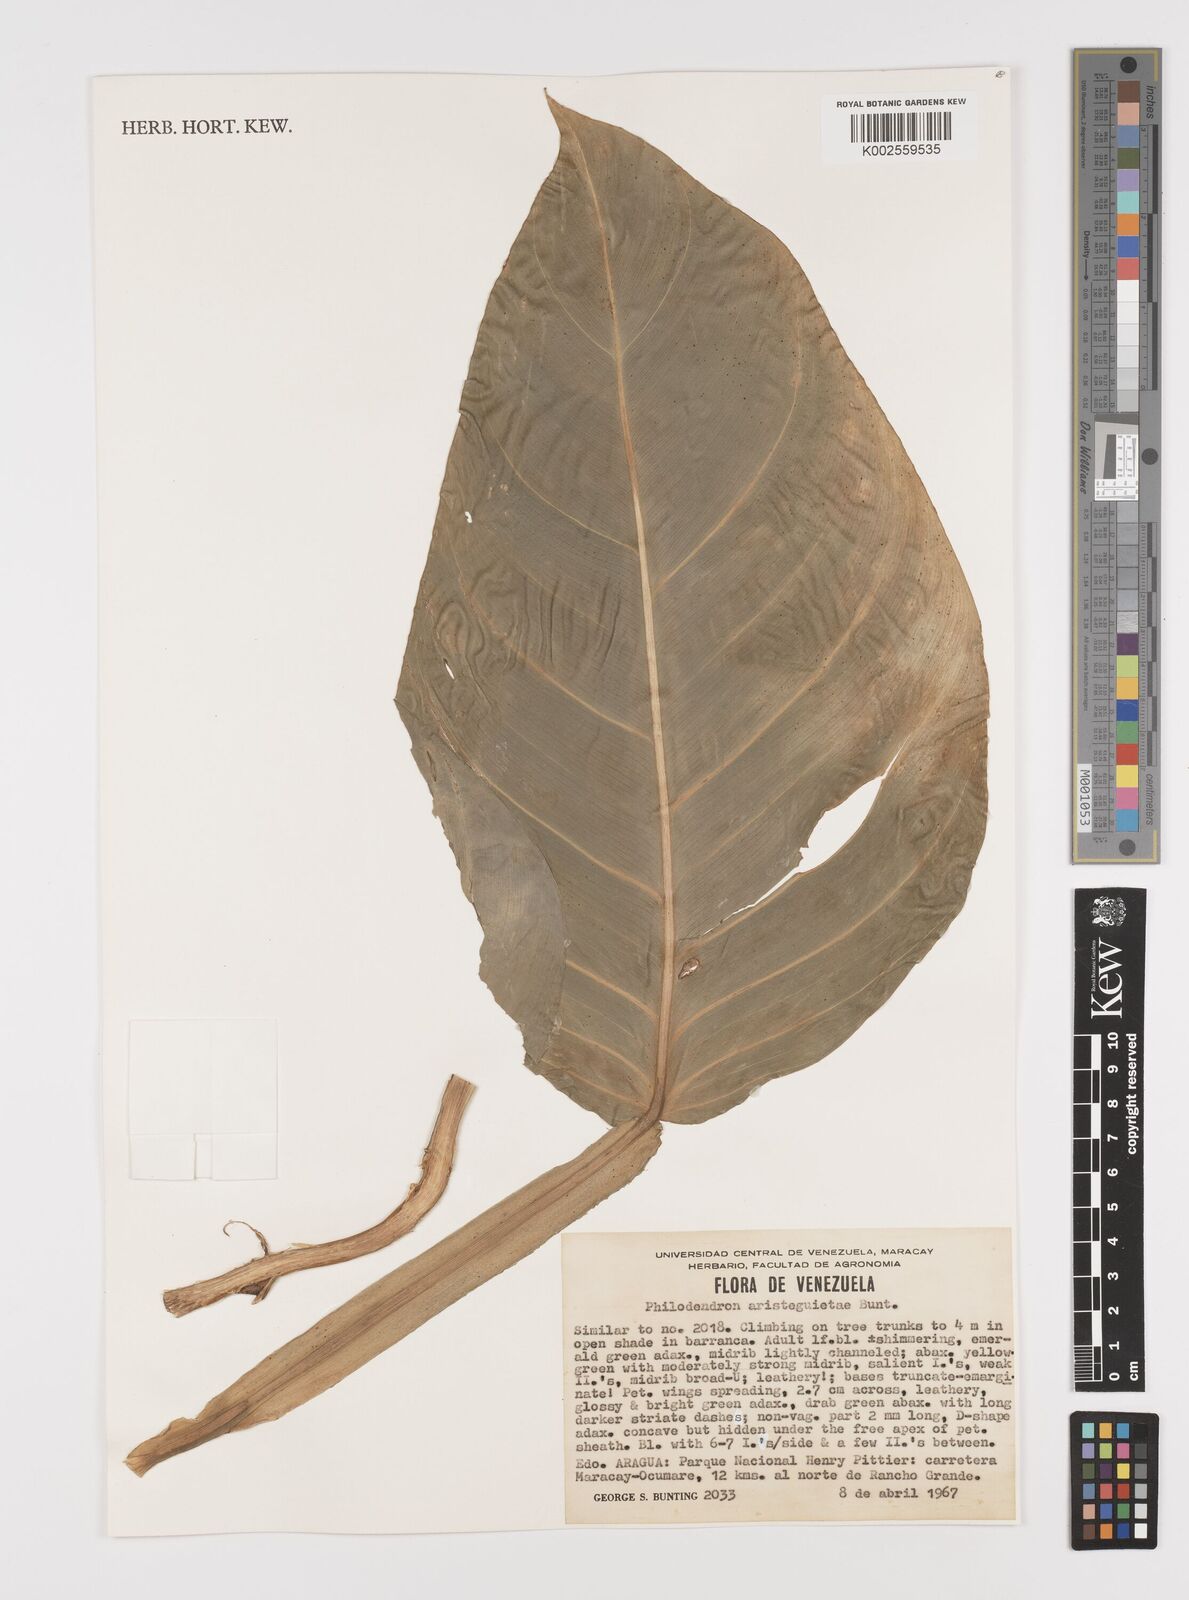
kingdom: Plantae
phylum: Tracheophyta
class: Liliopsida
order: Alismatales
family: Araceae
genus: Philodendron
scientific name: Philodendron aristeguietae
